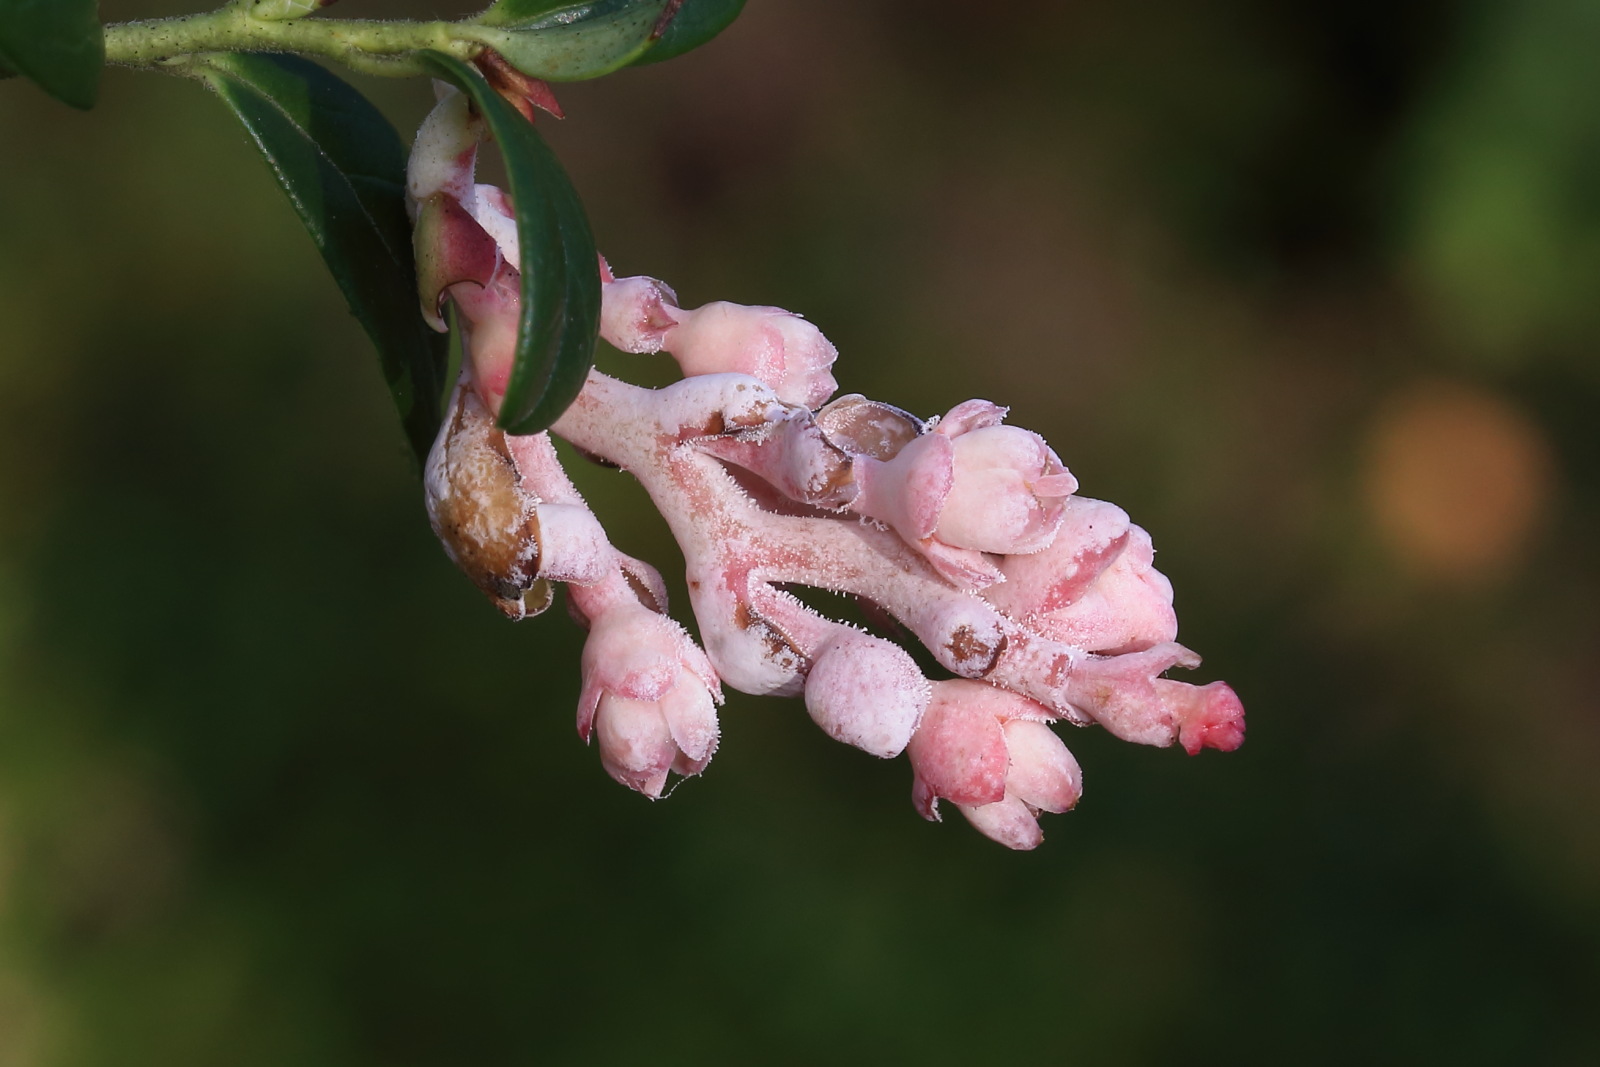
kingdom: Fungi
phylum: Basidiomycota
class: Exobasidiomycetes
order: Exobasidiales
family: Exobasidiaceae
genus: Exobasidium
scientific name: Exobasidium vaccinii
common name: tyttebærblad-bøllesvamp
